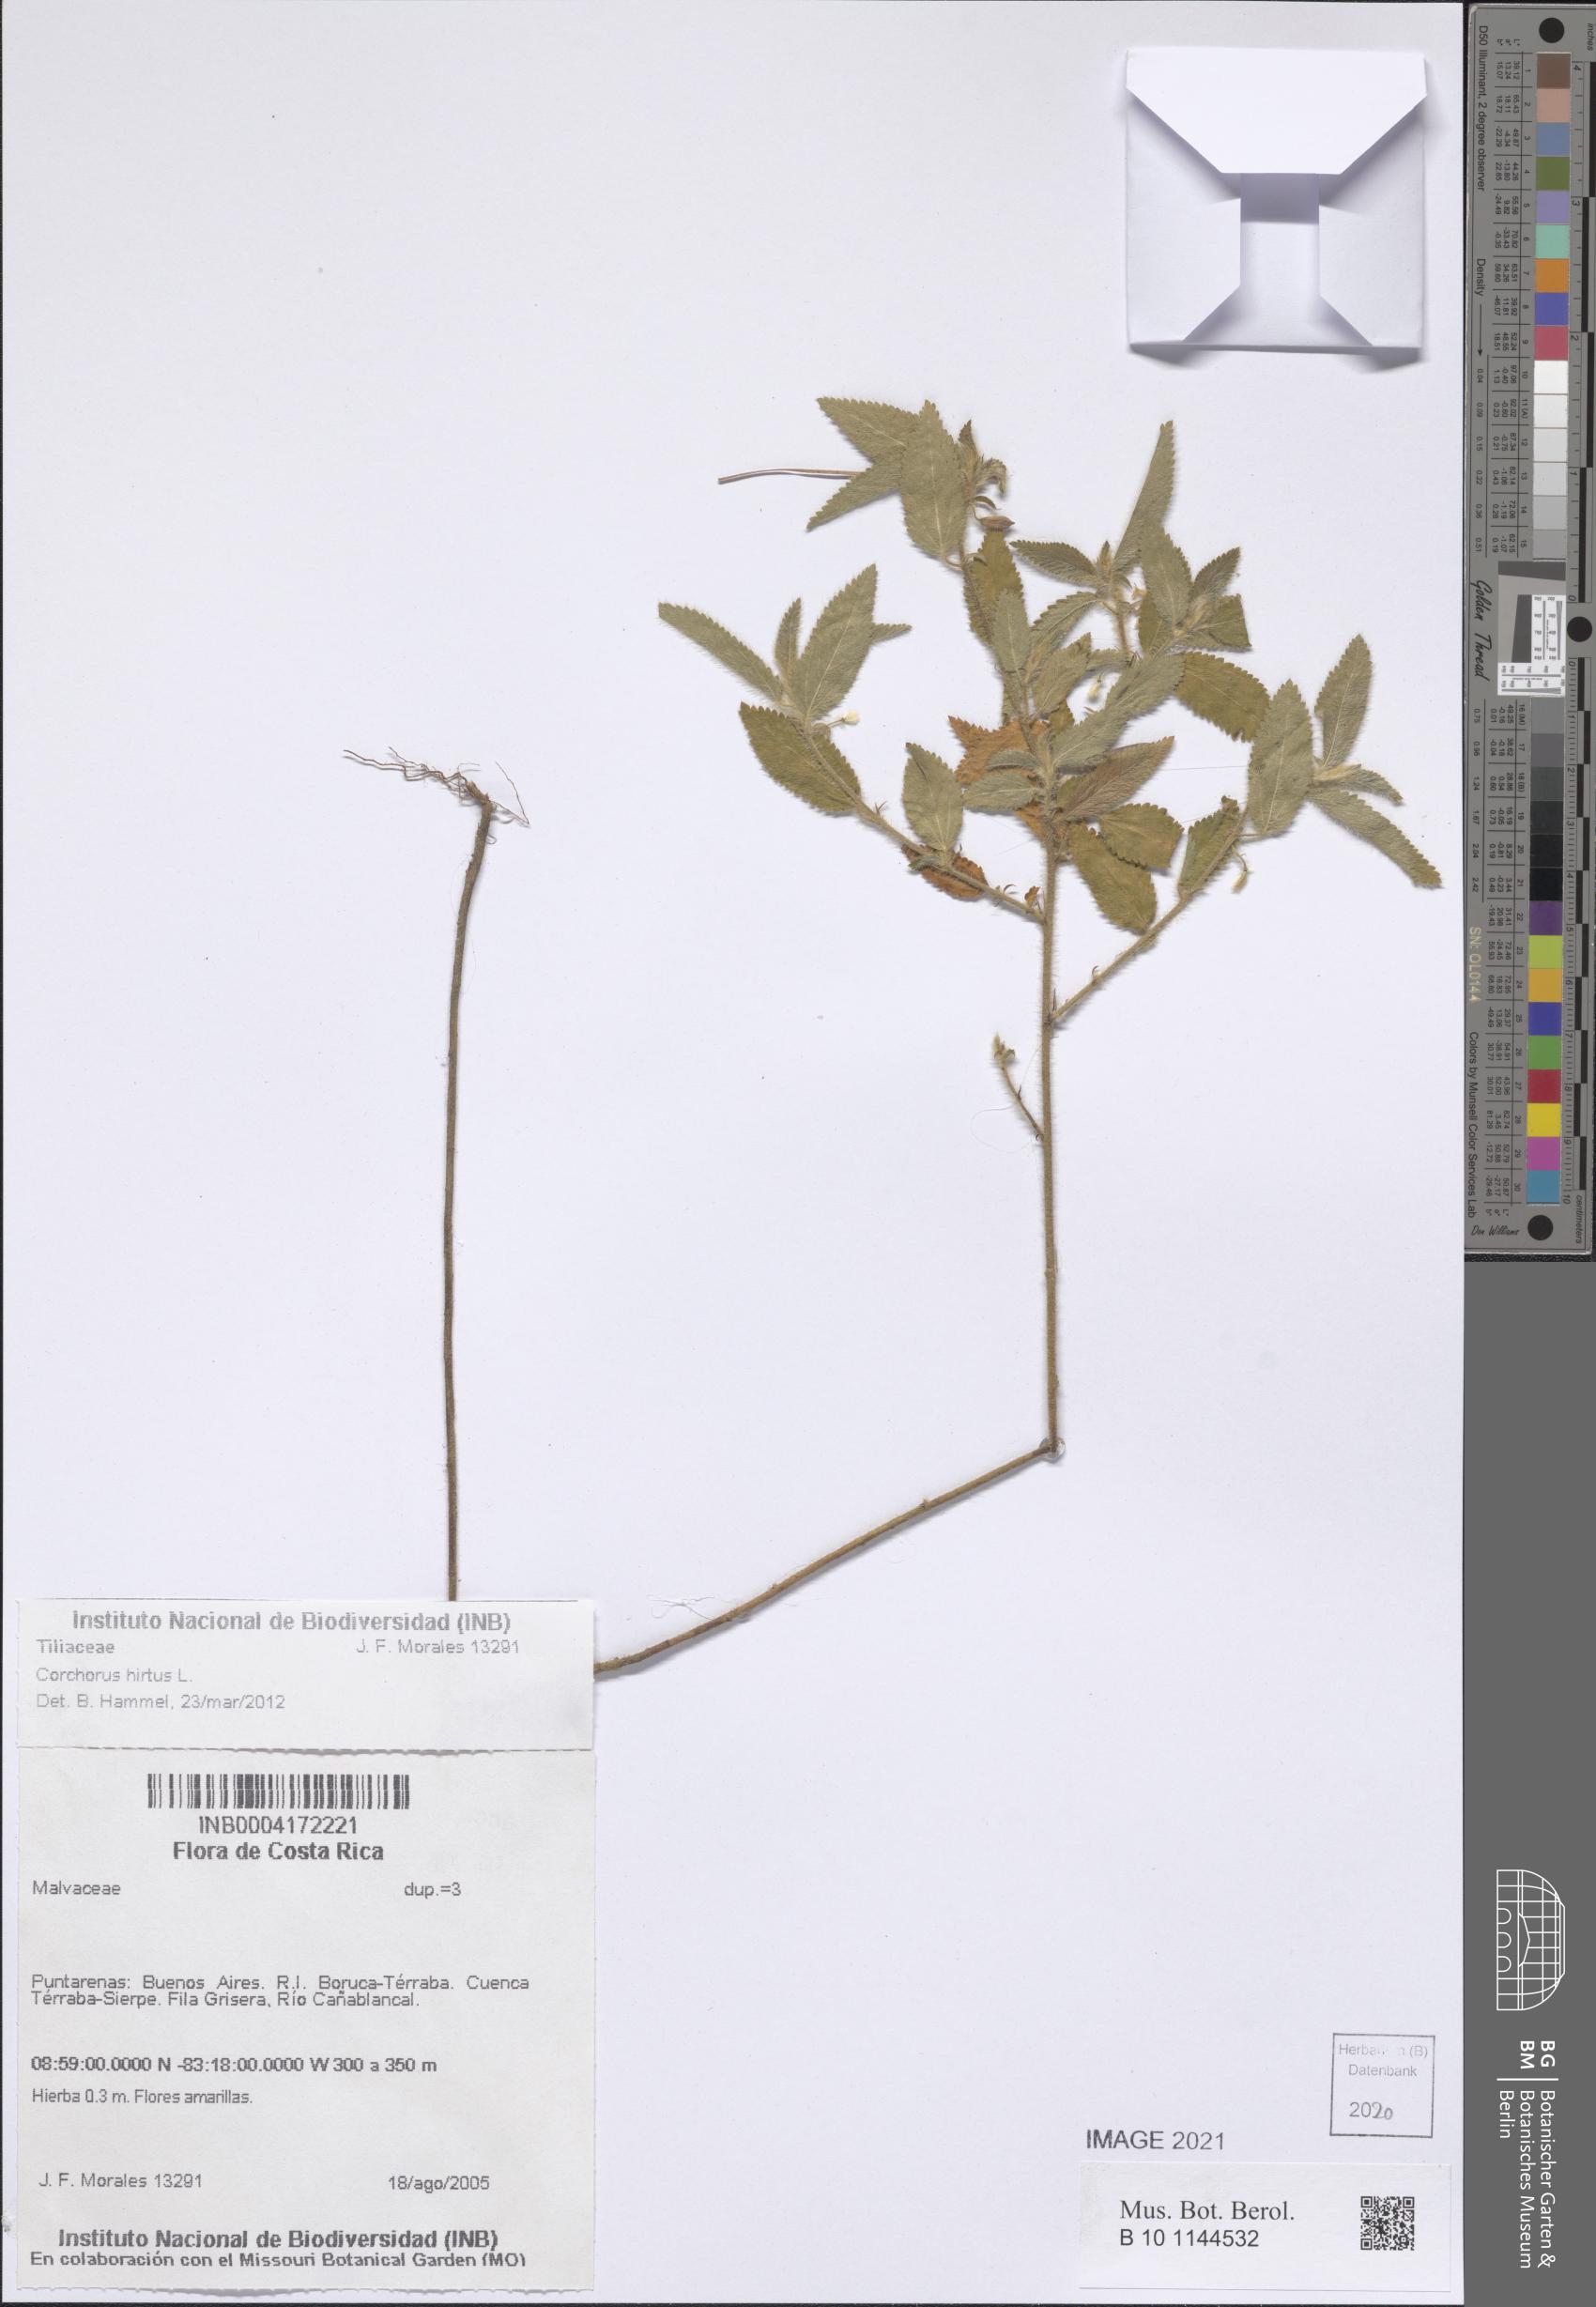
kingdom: Plantae
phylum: Tracheophyta
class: Magnoliopsida
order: Malvales
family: Malvaceae
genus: Corchorus
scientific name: Corchorus hirtus
